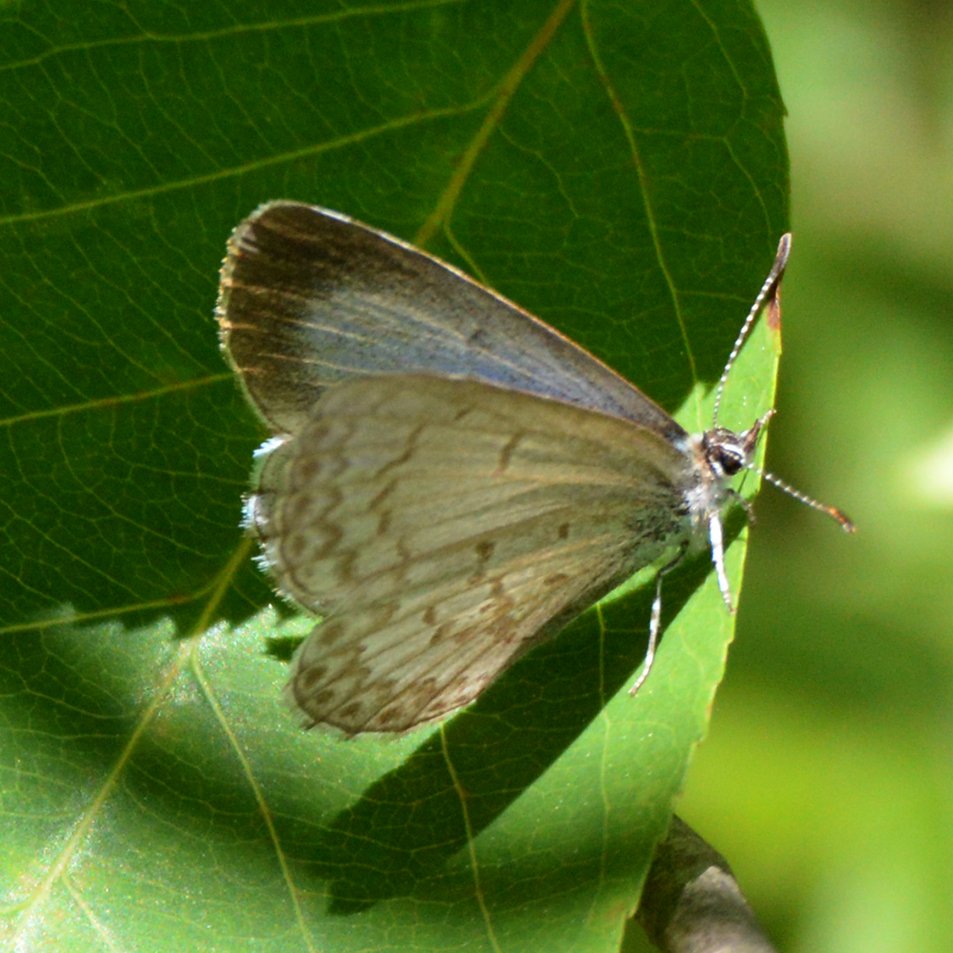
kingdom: Animalia
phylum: Arthropoda
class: Insecta
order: Lepidoptera
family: Lycaenidae
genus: Celastrina
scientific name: Celastrina lucia
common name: Northern Spring Azure
